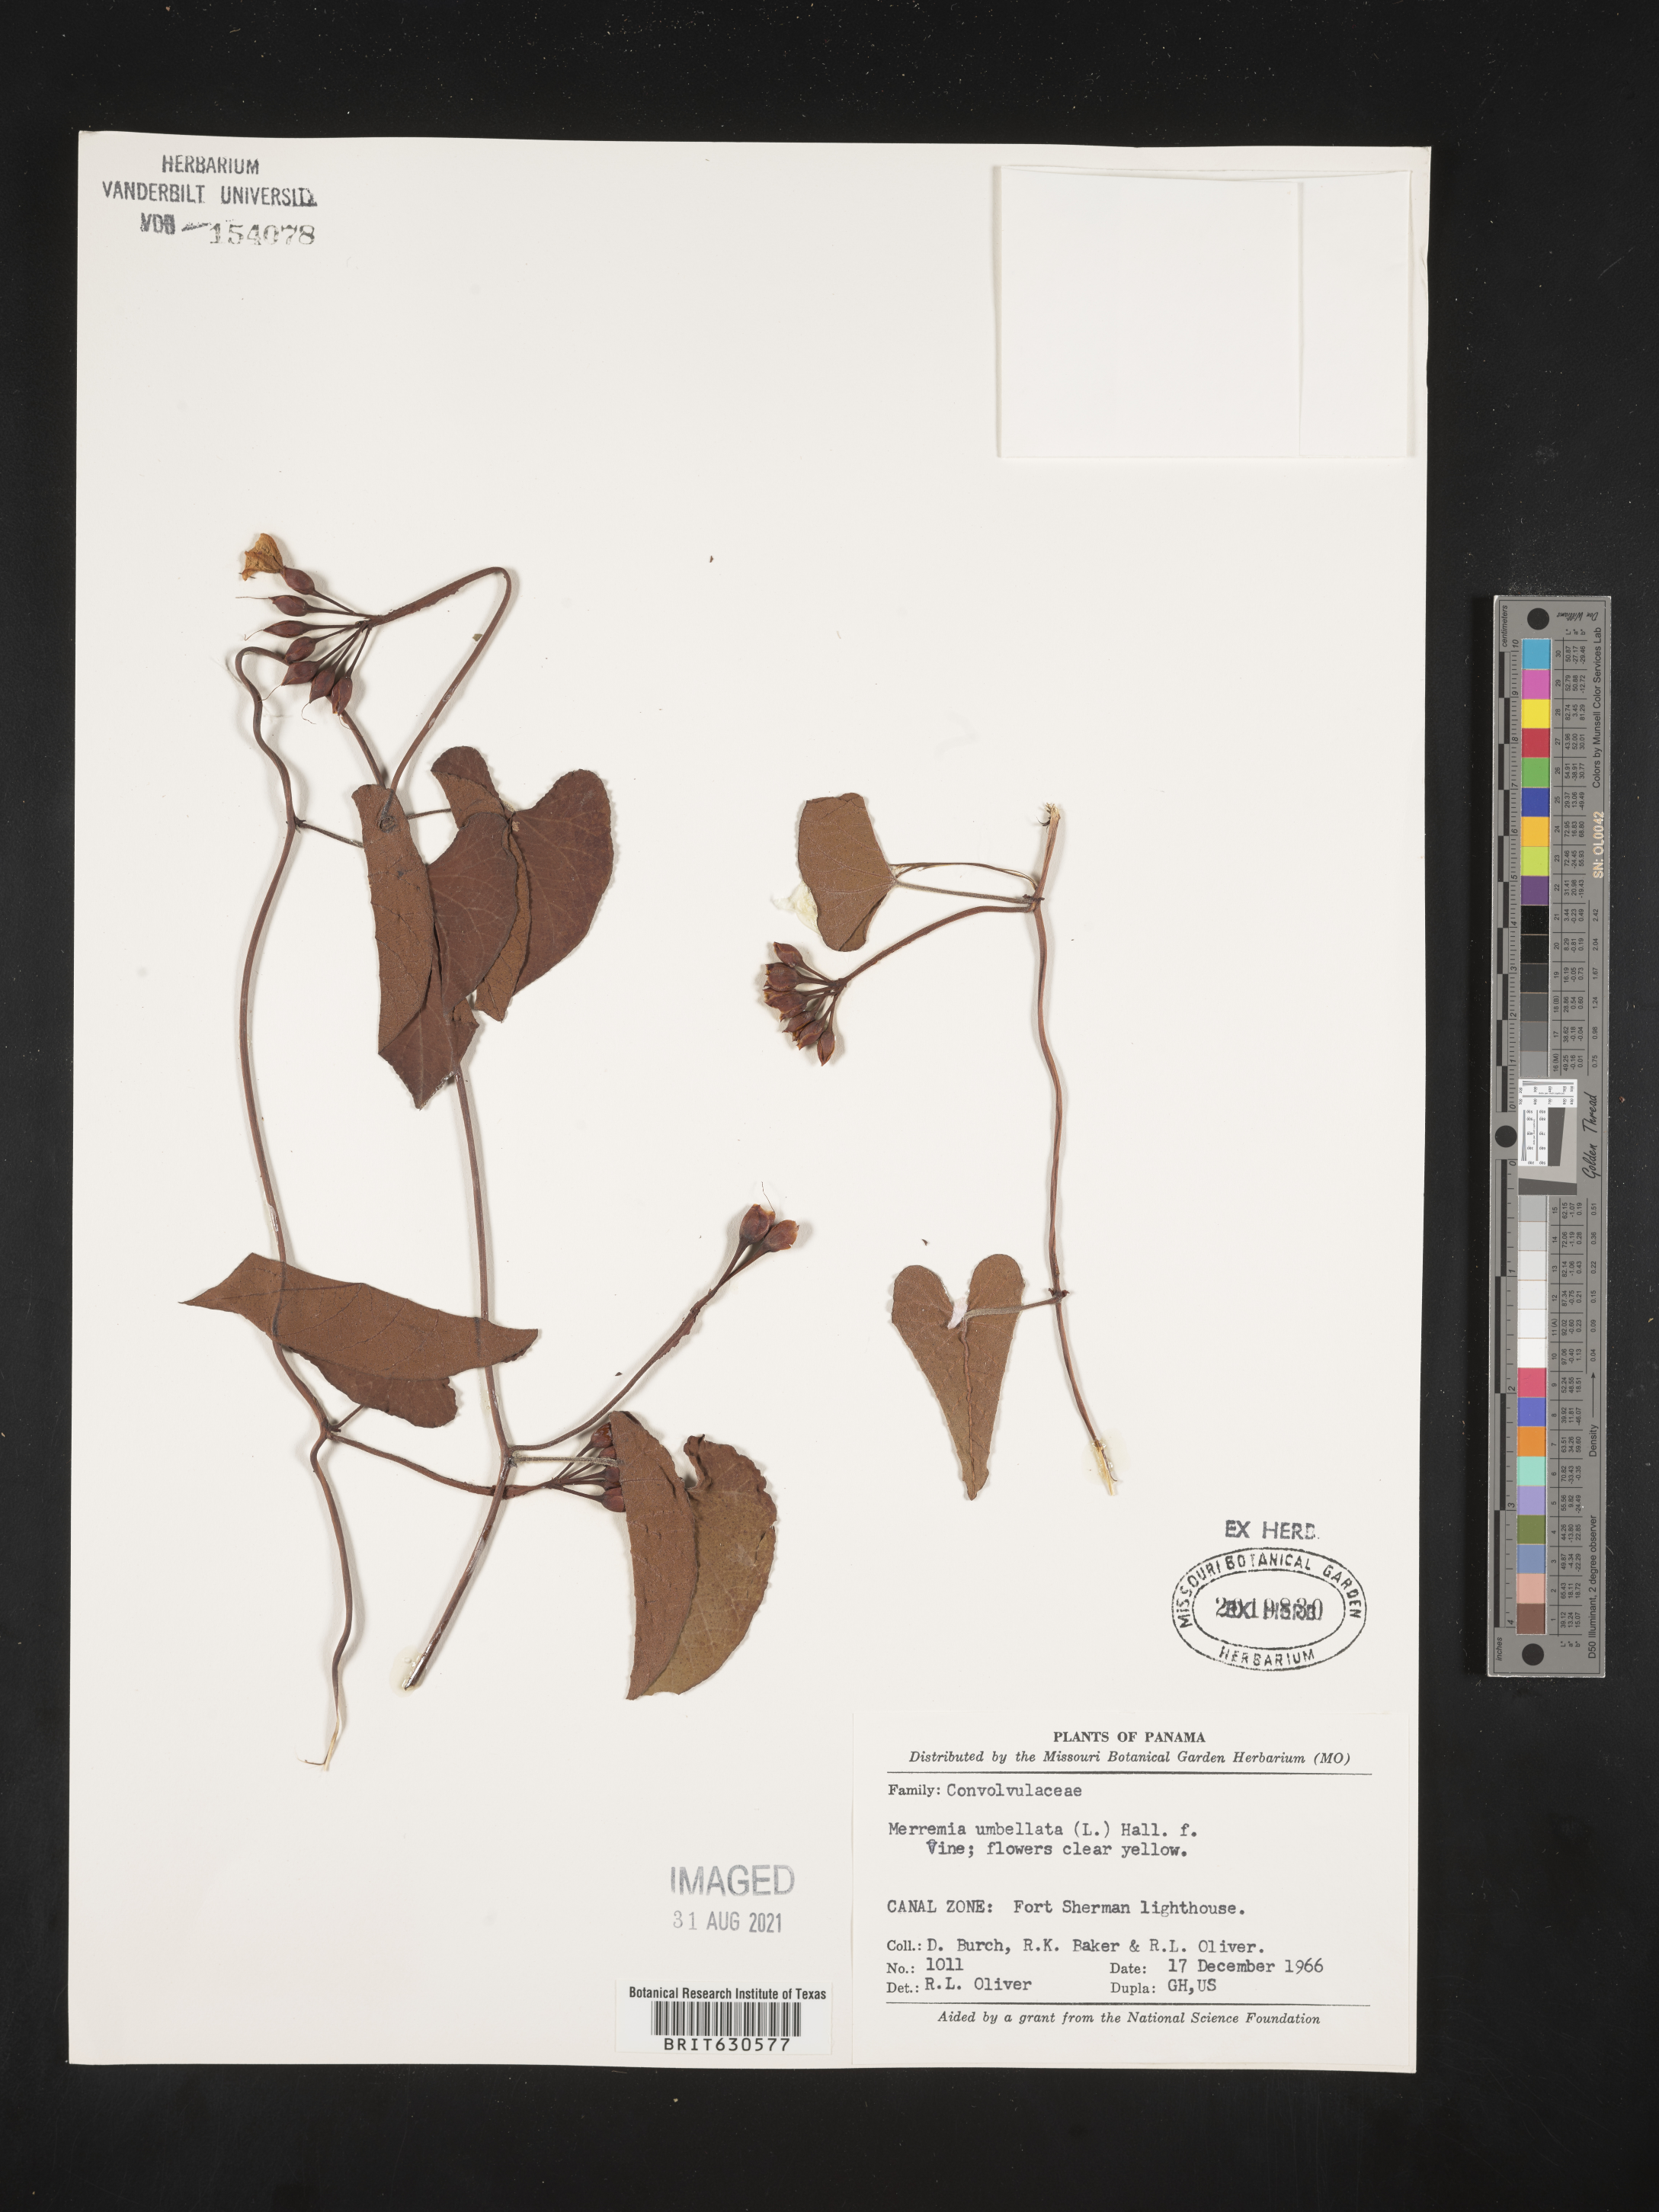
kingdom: Plantae
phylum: Tracheophyta
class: Magnoliopsida
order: Solanales
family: Convolvulaceae
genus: Camonea
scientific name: Camonea umbellata
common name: Hogvine
